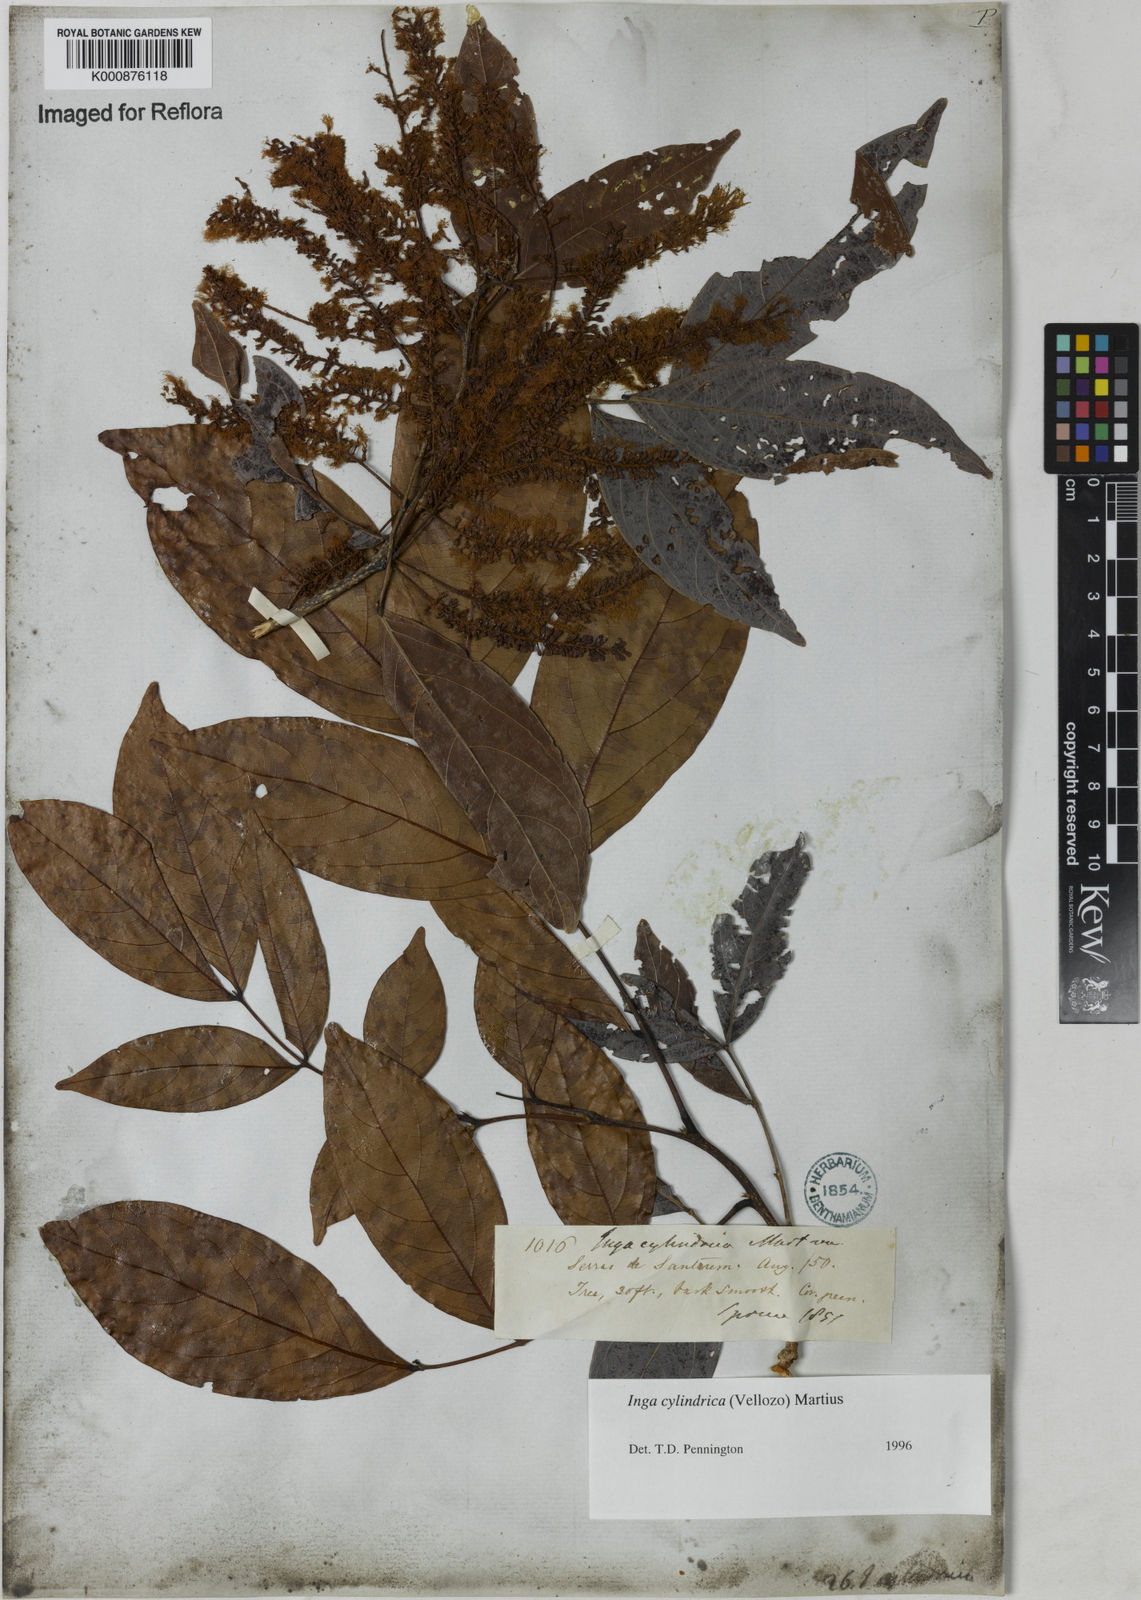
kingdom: Plantae
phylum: Tracheophyta
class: Magnoliopsida
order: Fabales
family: Fabaceae
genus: Inga
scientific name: Inga cylindrica
